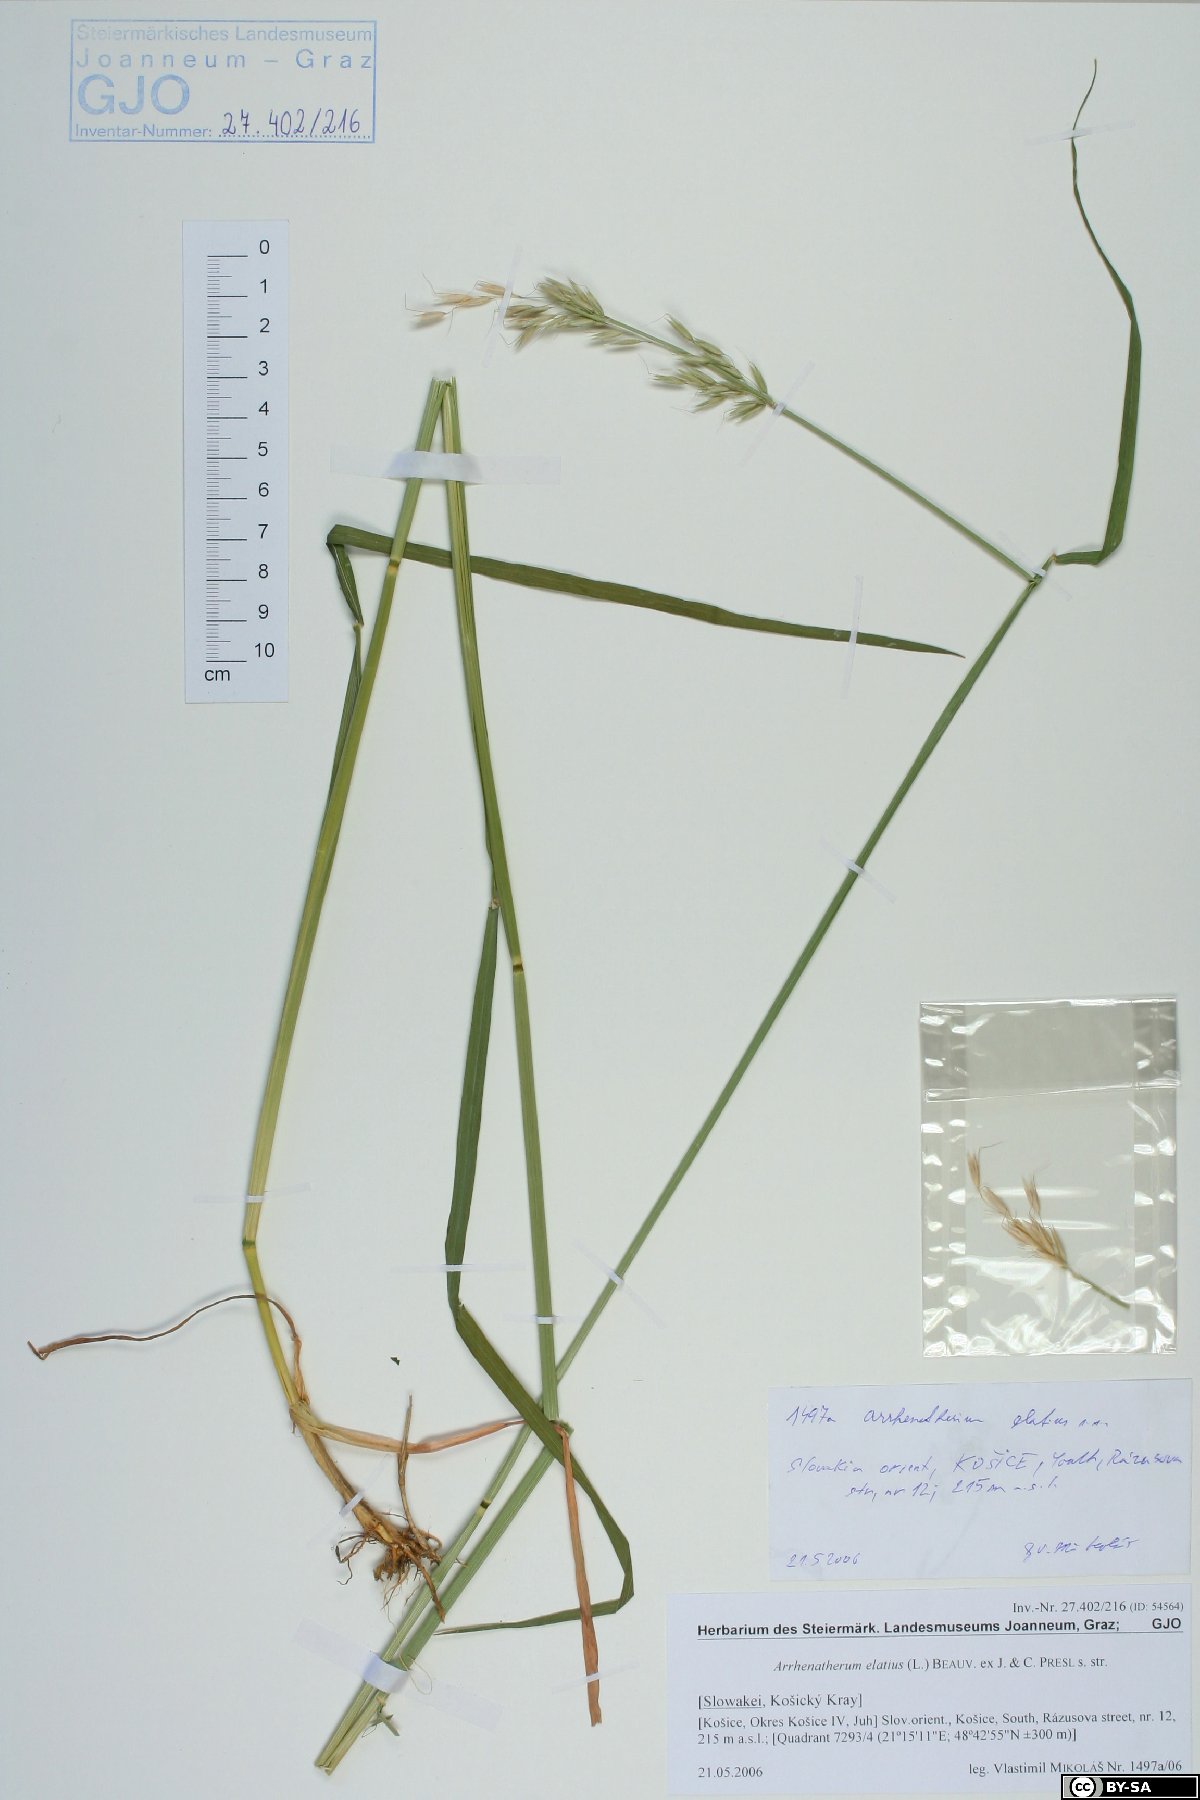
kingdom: Plantae
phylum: Tracheophyta
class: Liliopsida
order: Poales
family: Poaceae
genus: Arrhenatherum
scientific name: Arrhenatherum elatius
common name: Tall oatgrass
